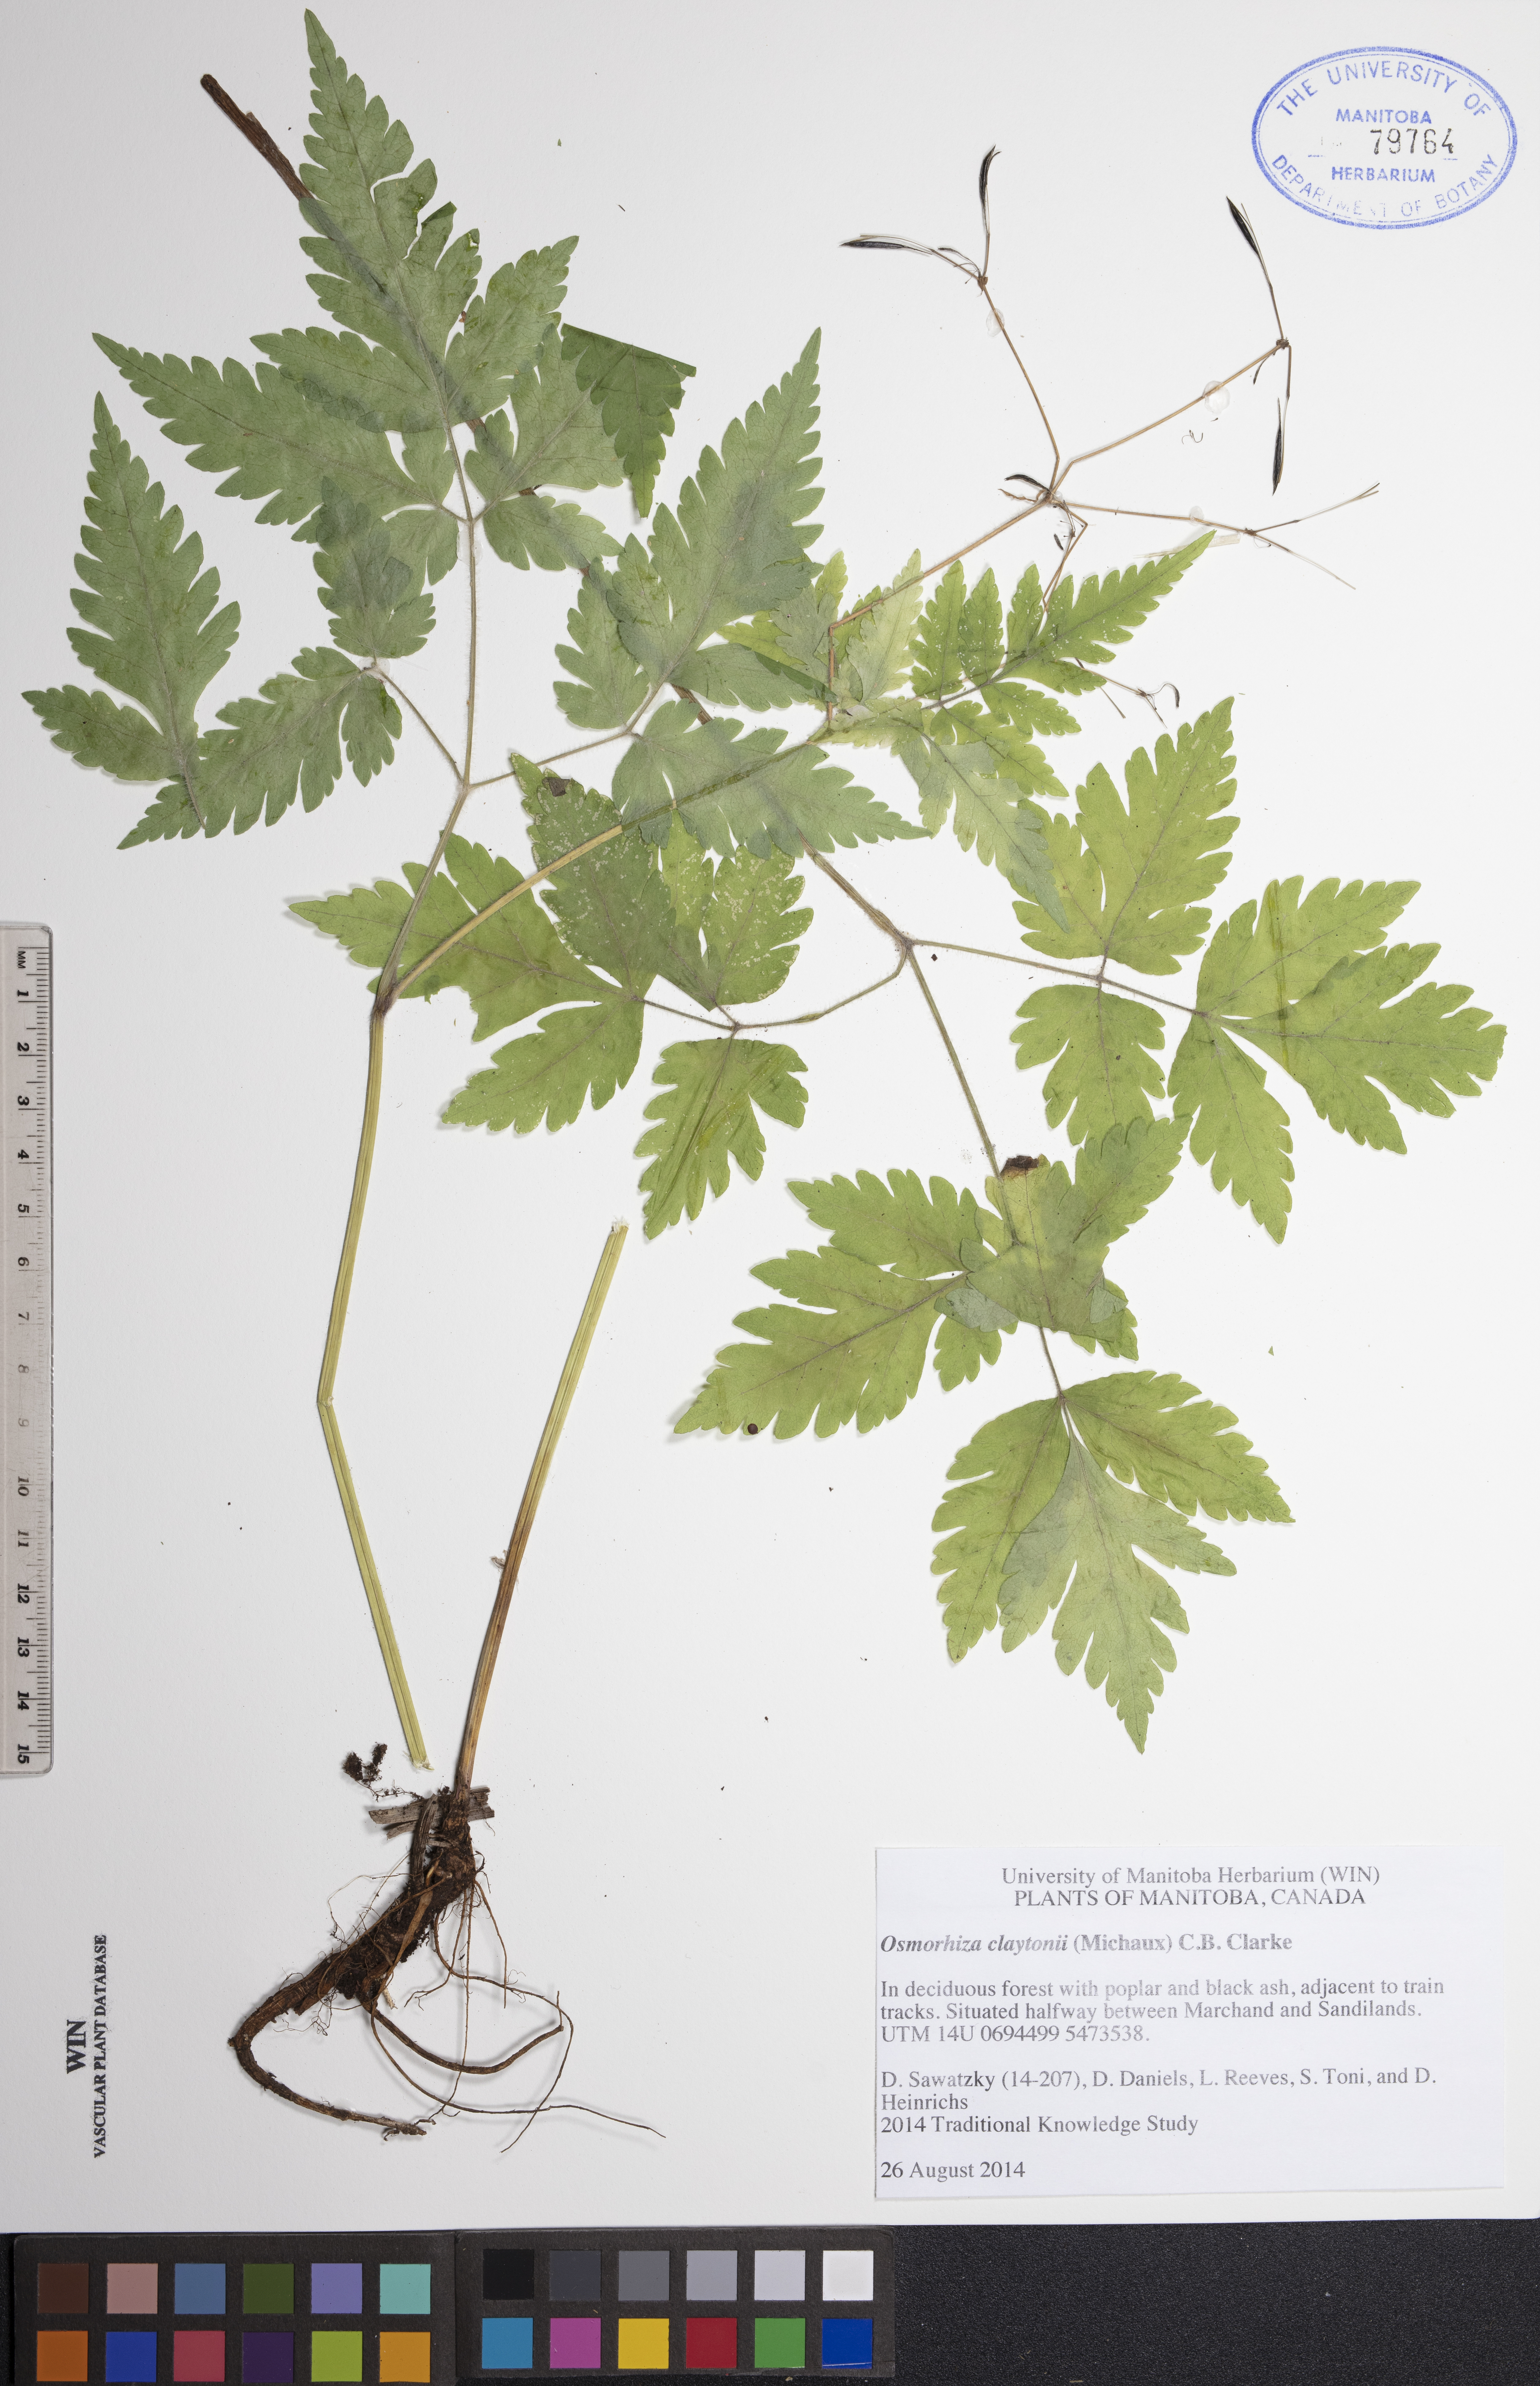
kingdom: Plantae
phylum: Tracheophyta
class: Magnoliopsida
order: Apiales
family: Apiaceae
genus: Osmorhiza
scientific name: Osmorhiza claytonii
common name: Hairy sweet cicely
